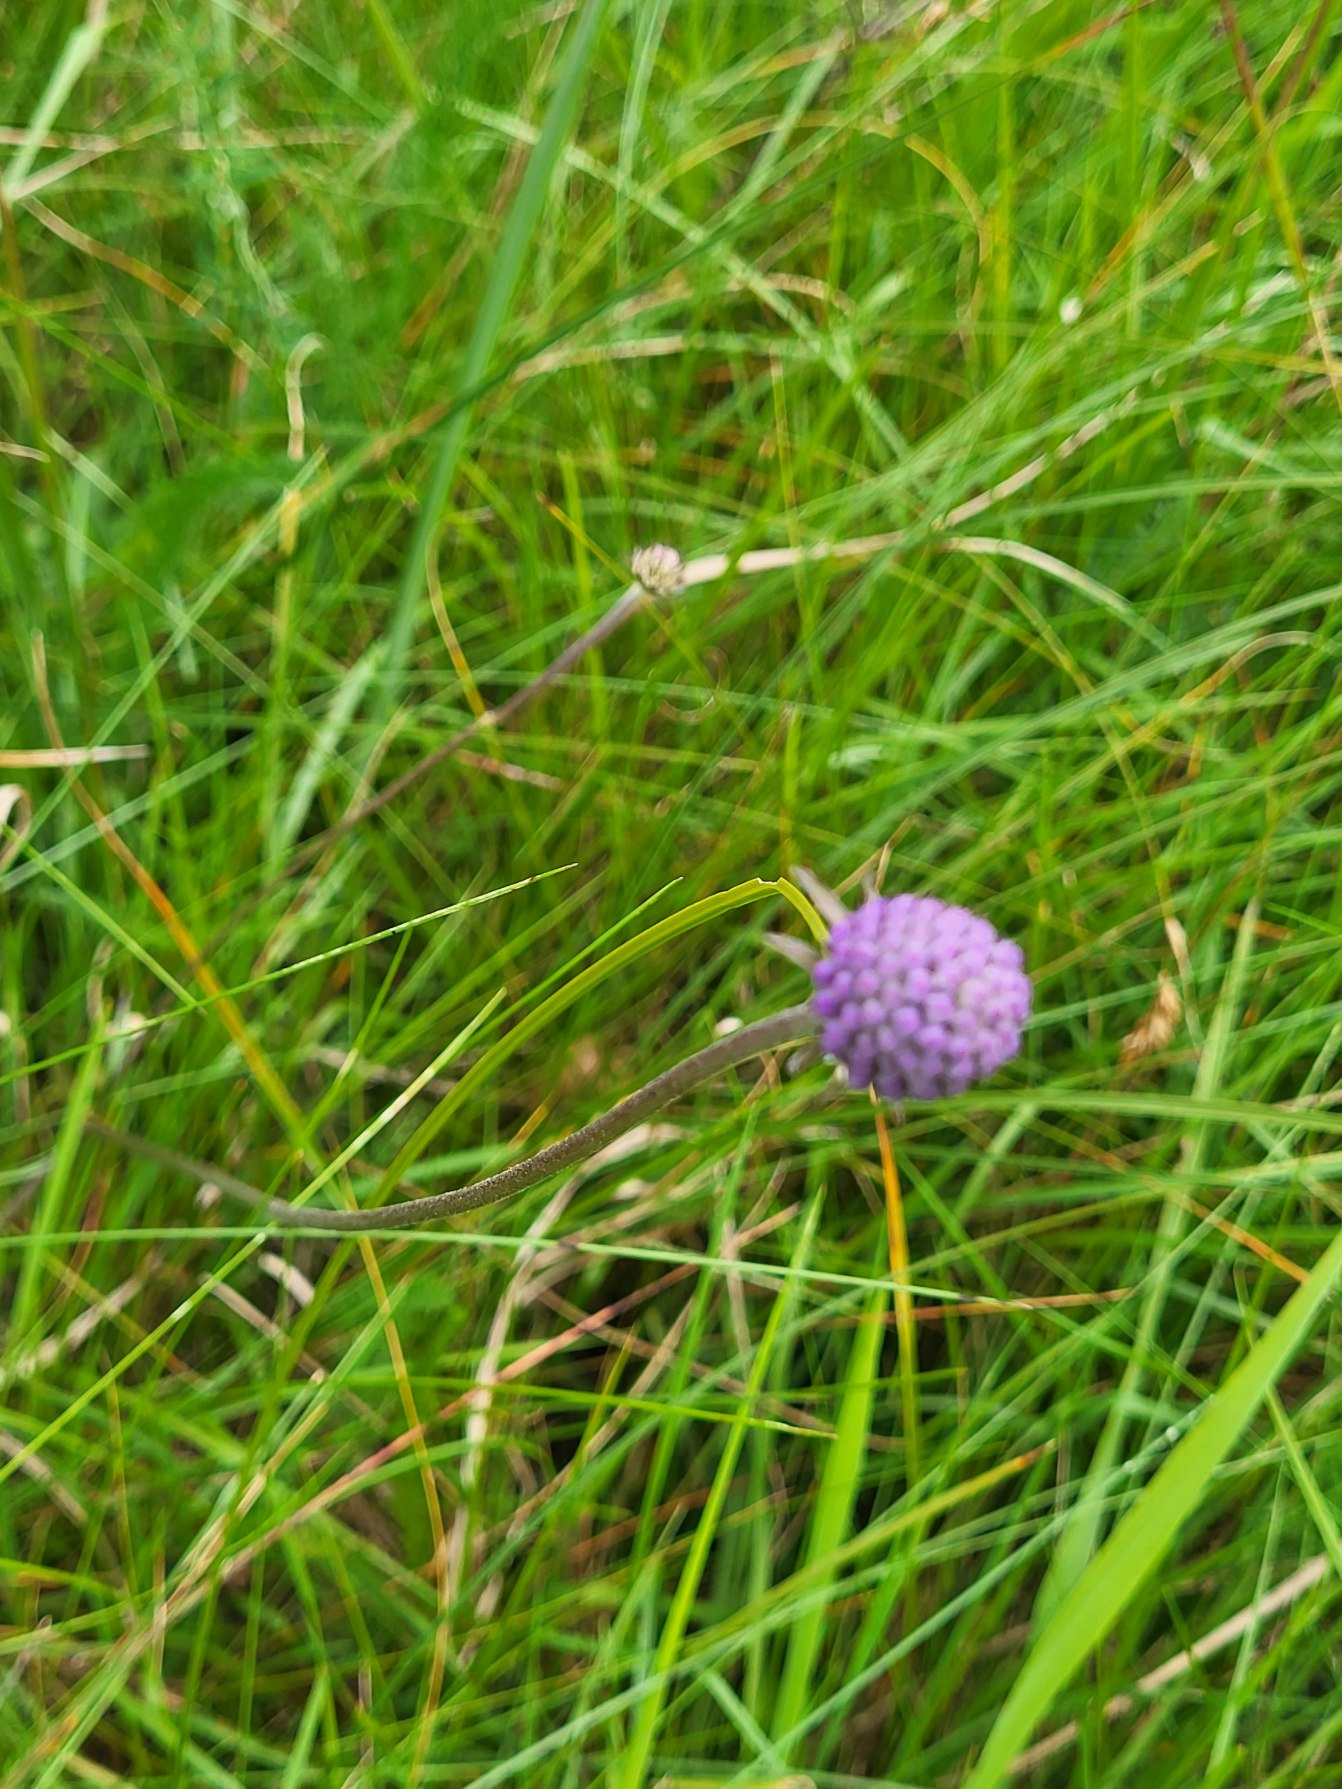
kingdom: Plantae
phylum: Tracheophyta
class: Magnoliopsida
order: Dipsacales
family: Caprifoliaceae
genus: Succisa
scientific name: Succisa pratensis
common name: Djævelsbid
